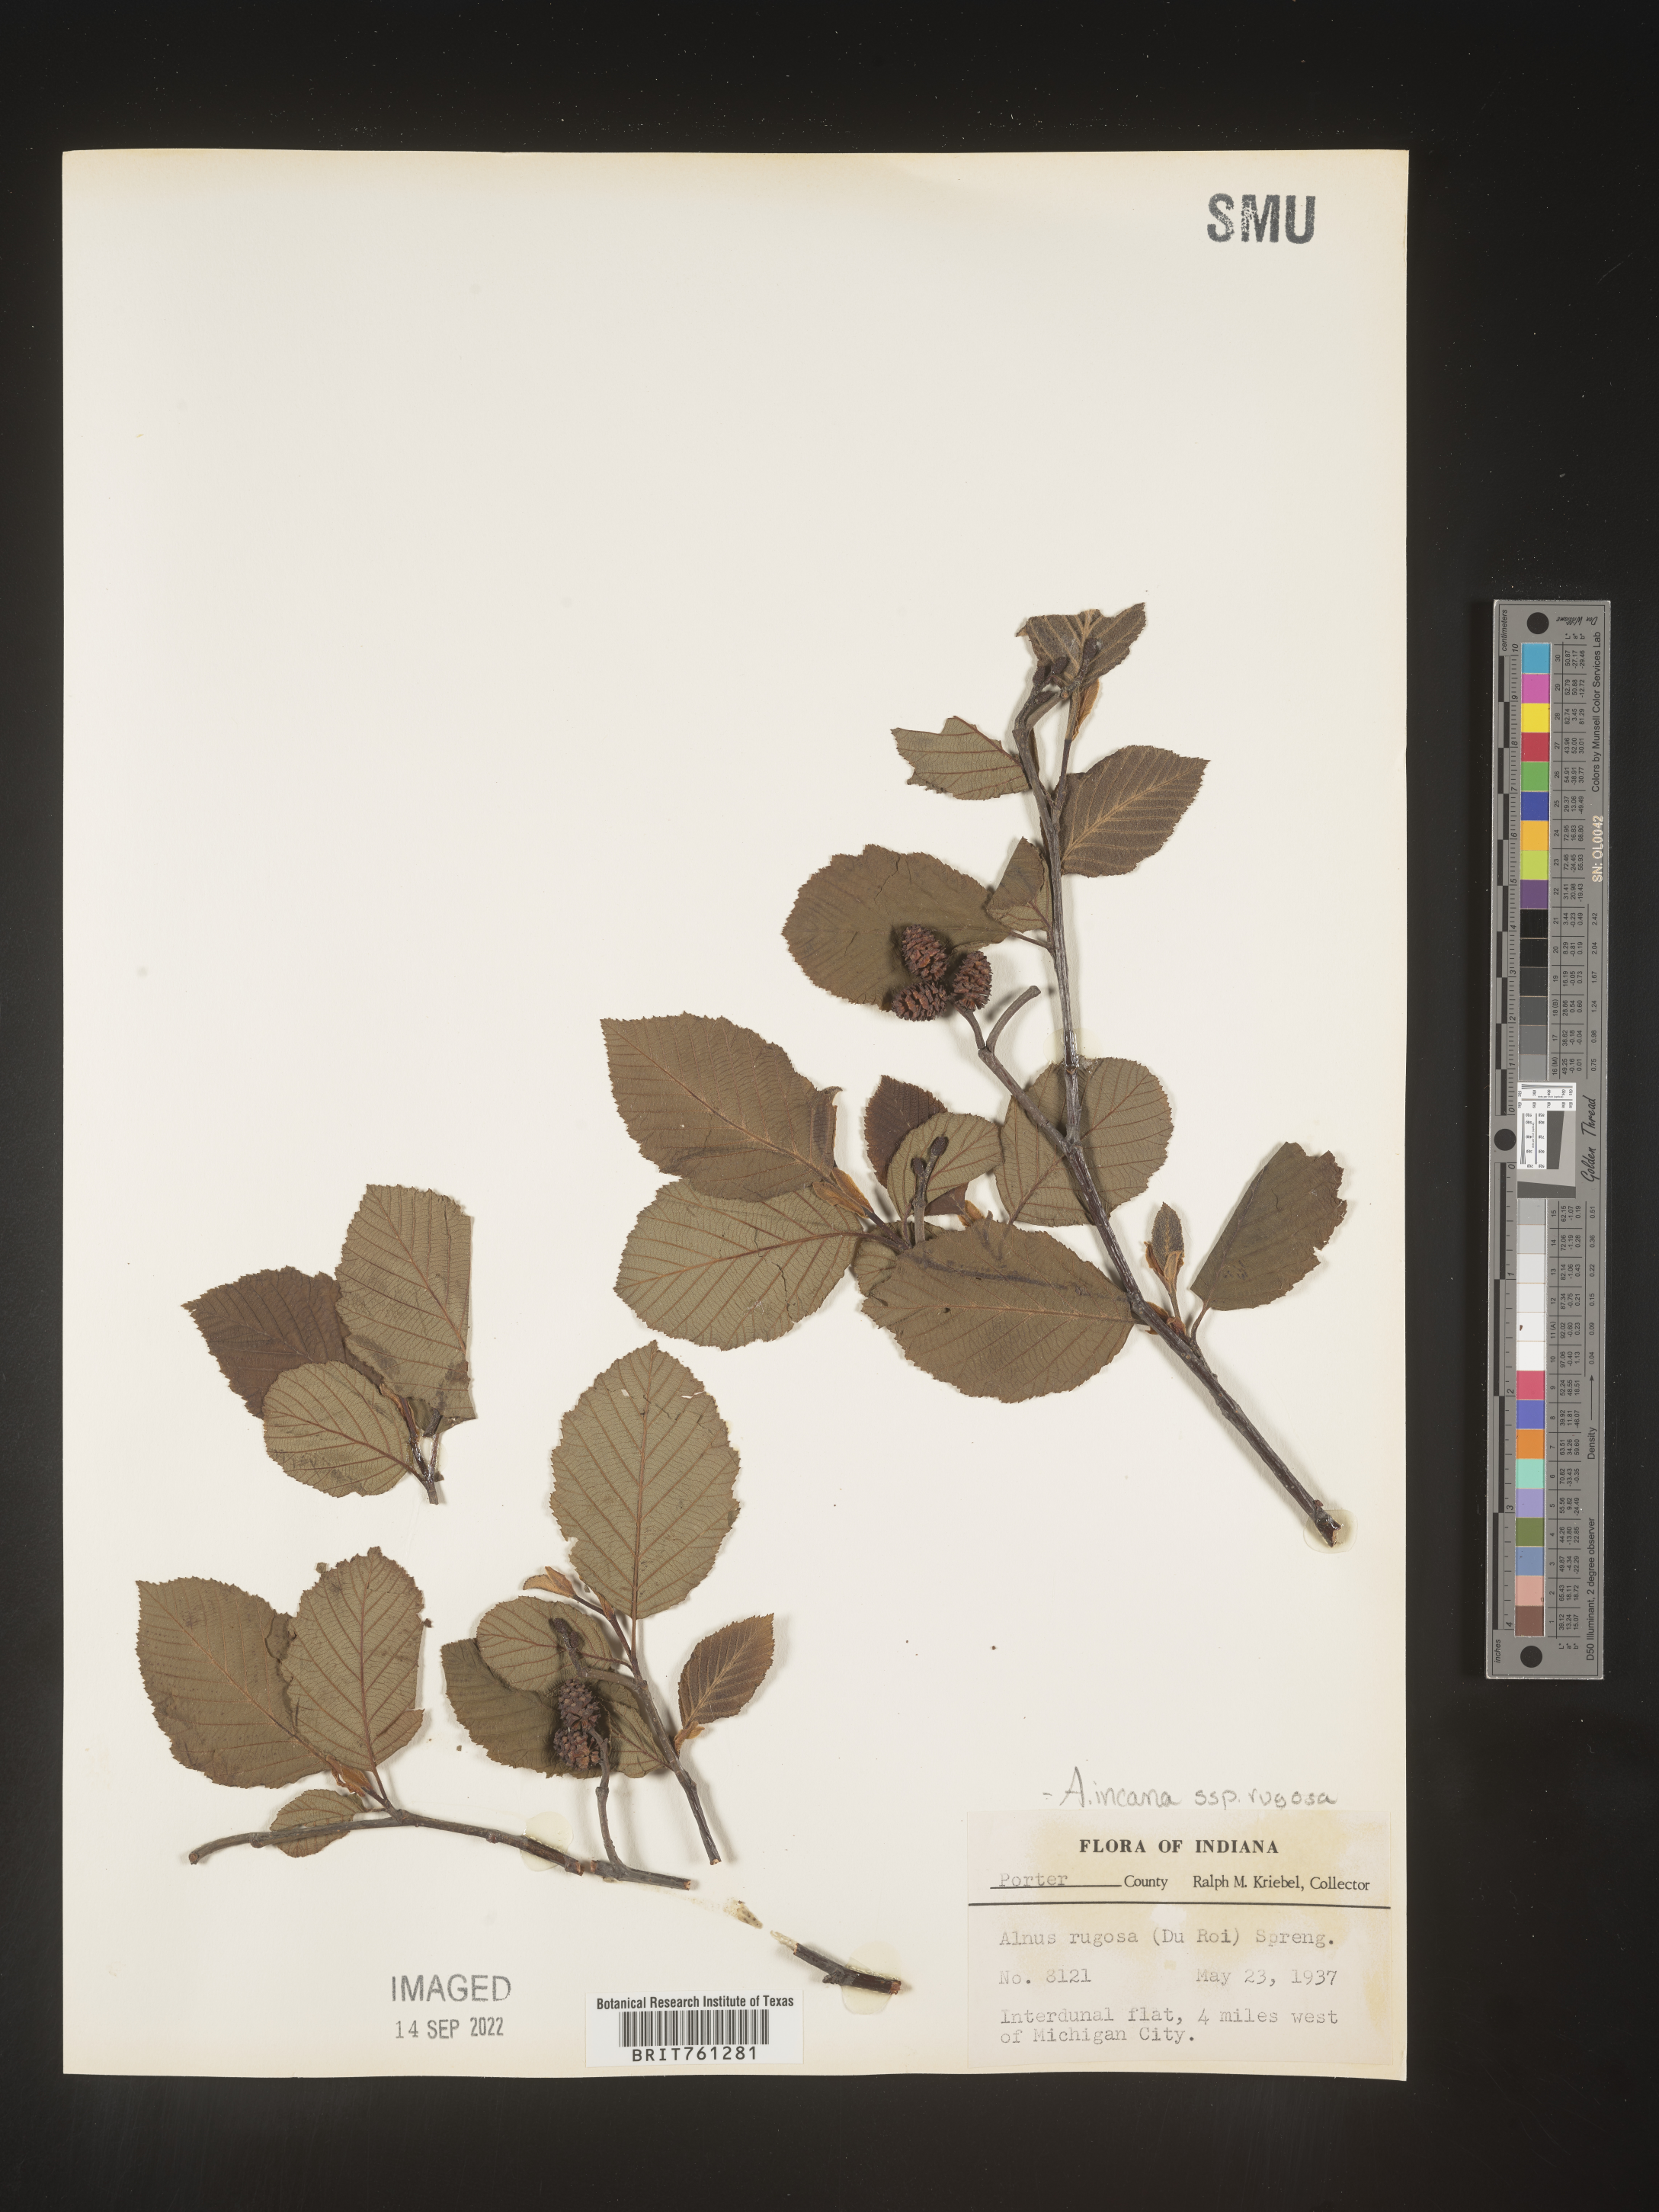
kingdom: Plantae
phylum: Tracheophyta
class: Magnoliopsida
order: Fagales
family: Betulaceae
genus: Alnus
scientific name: Alnus incana
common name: Grey alder
